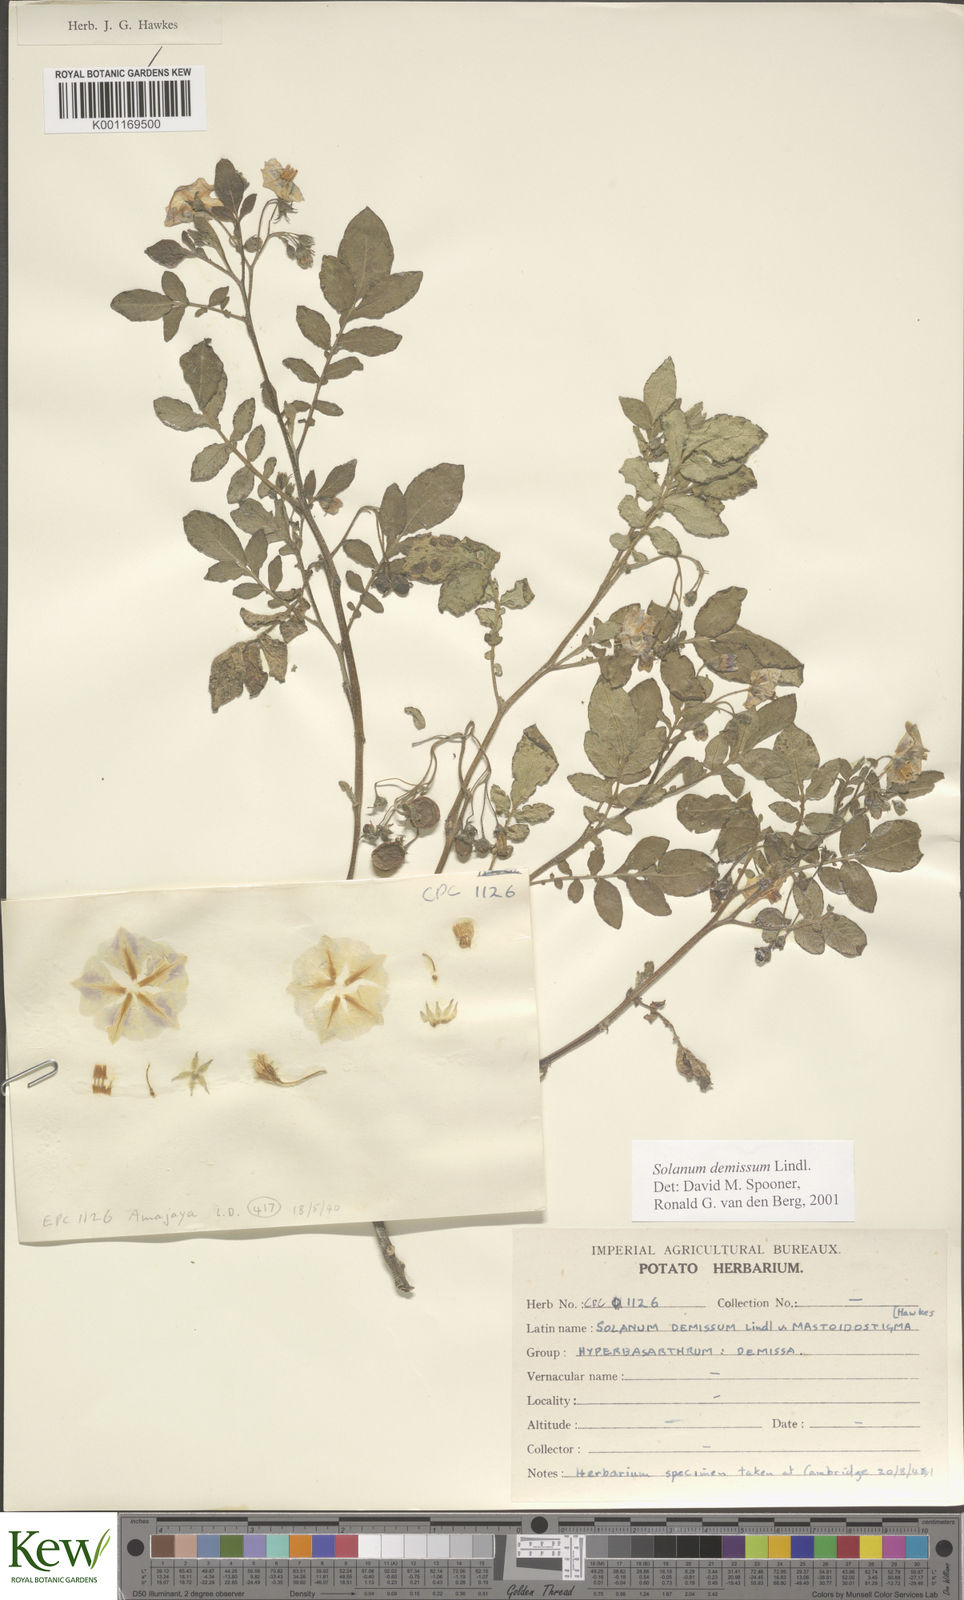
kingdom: Plantae
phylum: Tracheophyta
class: Magnoliopsida
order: Solanales
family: Solanaceae
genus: Solanum
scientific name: Solanum demissum
